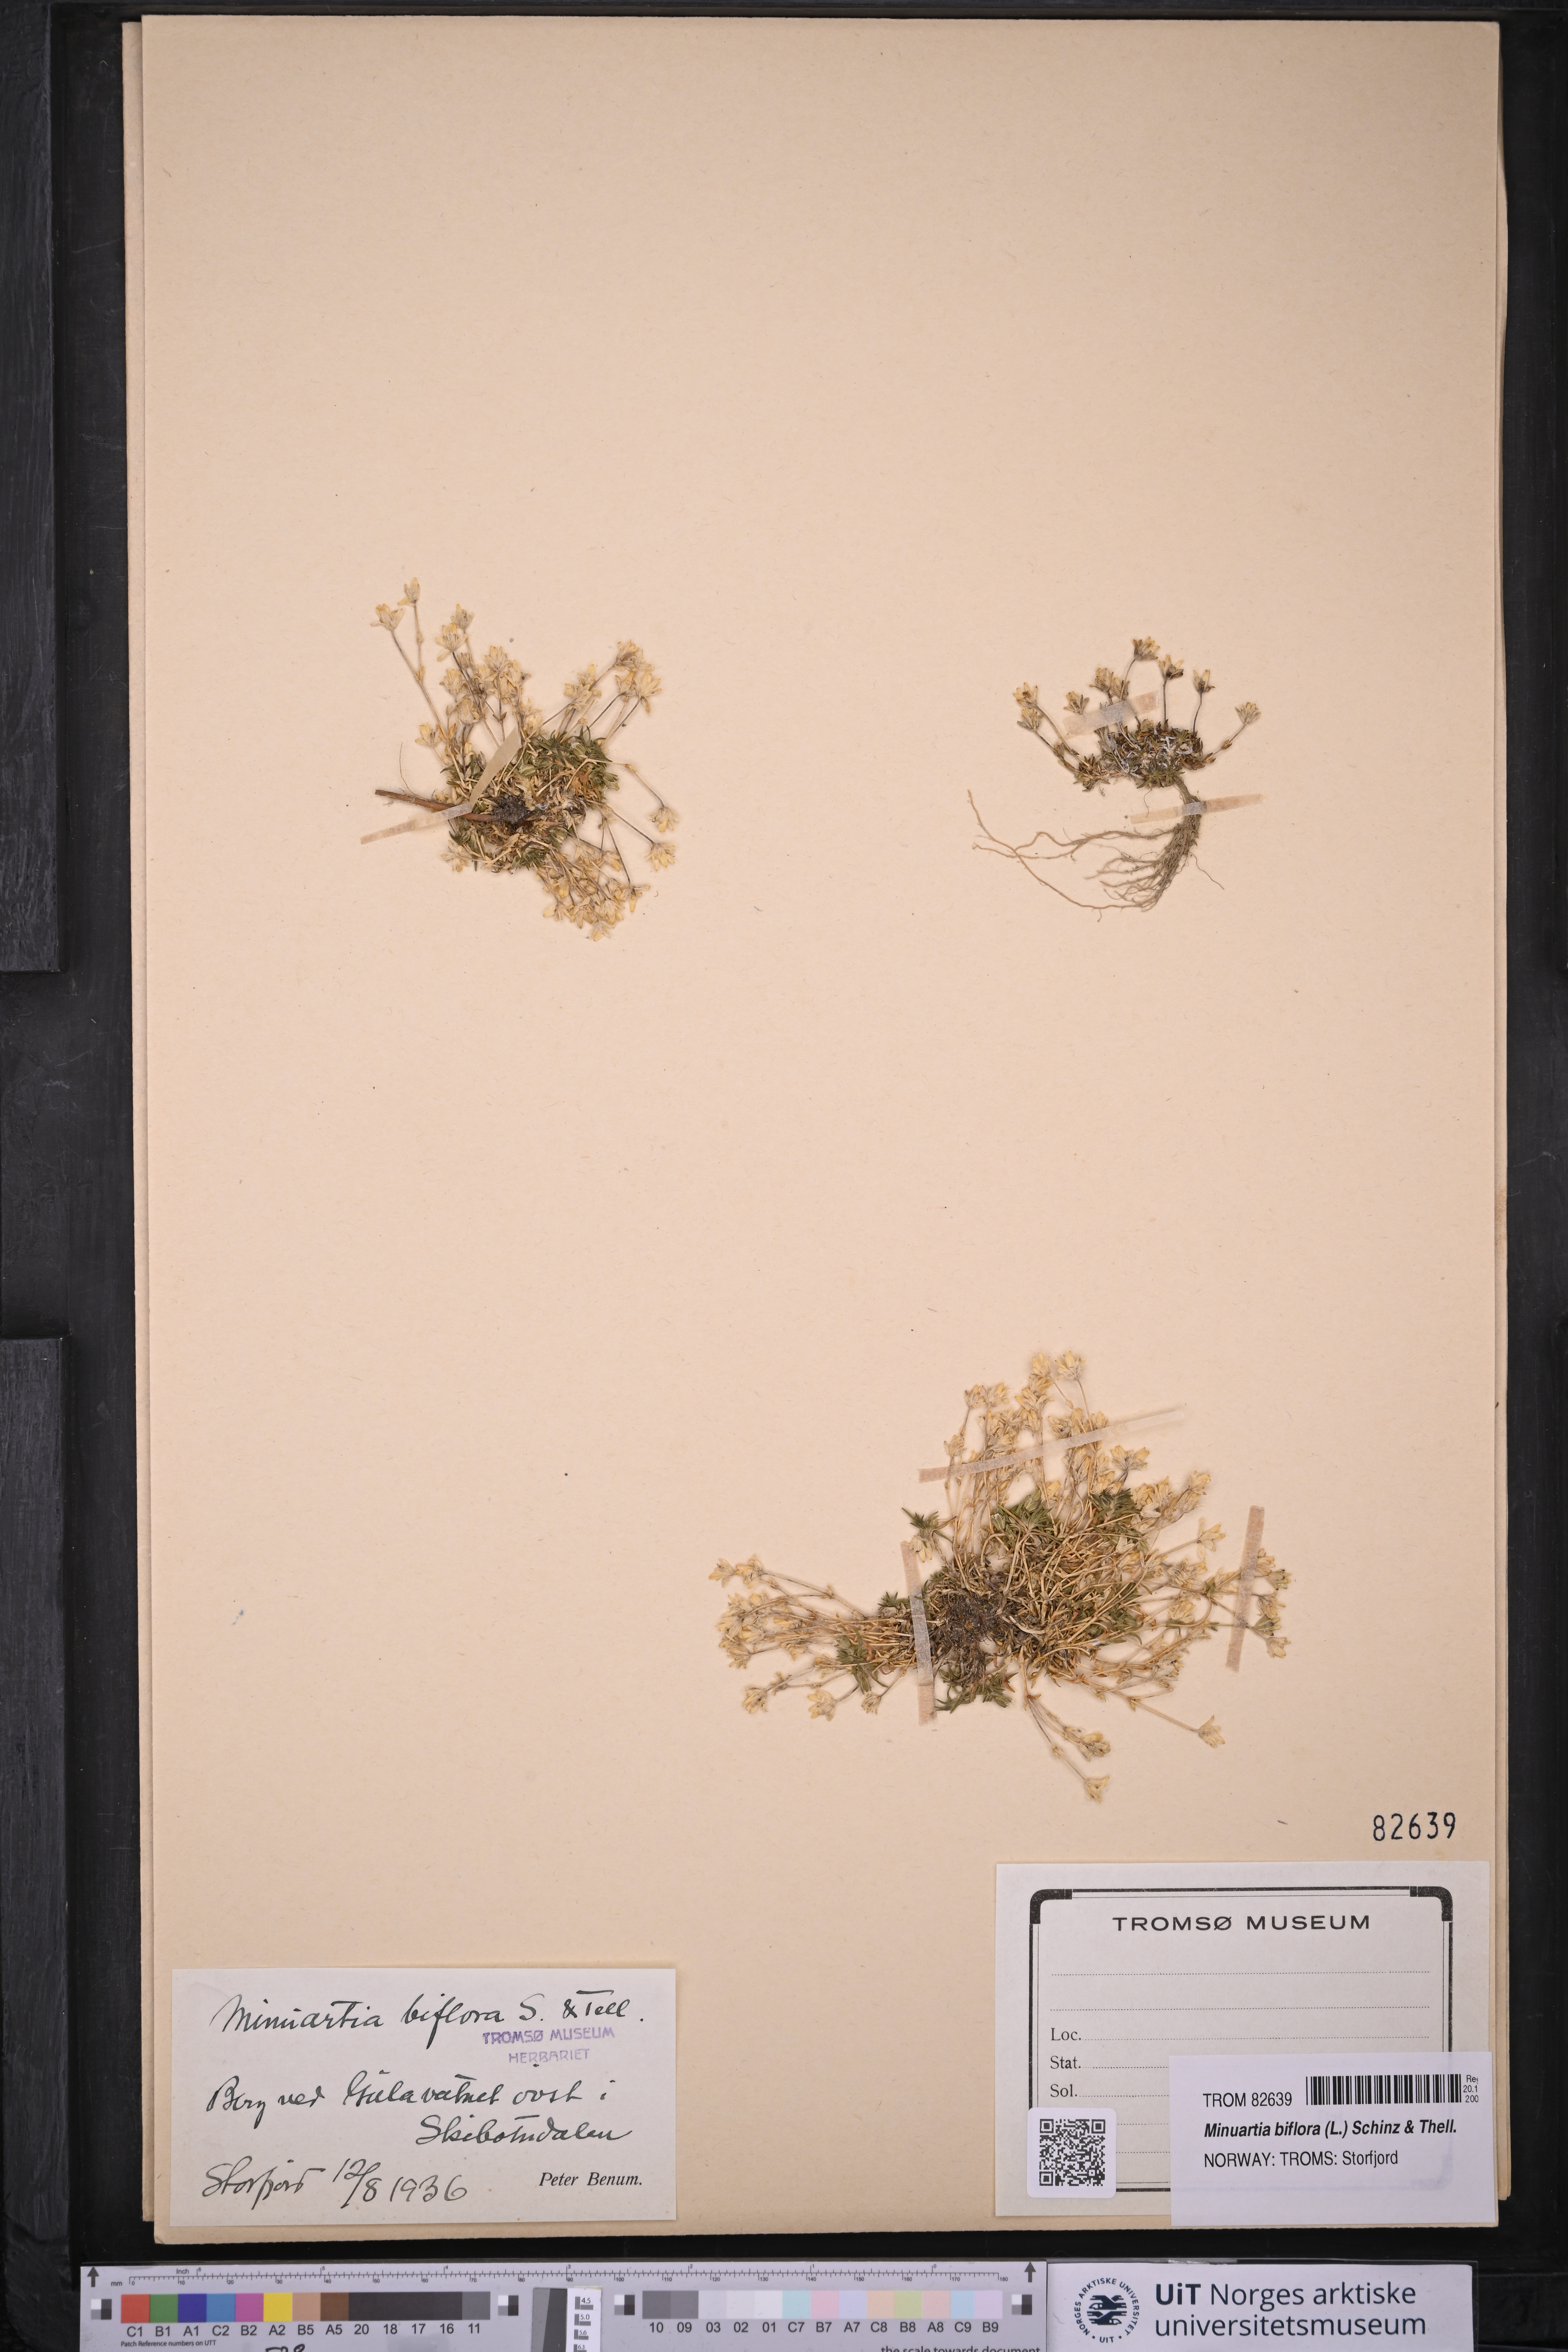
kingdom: Plantae
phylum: Tracheophyta
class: Magnoliopsida
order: Caryophyllales
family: Caryophyllaceae
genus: Cherleria
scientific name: Cherleria biflora
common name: Mountain sandwort
